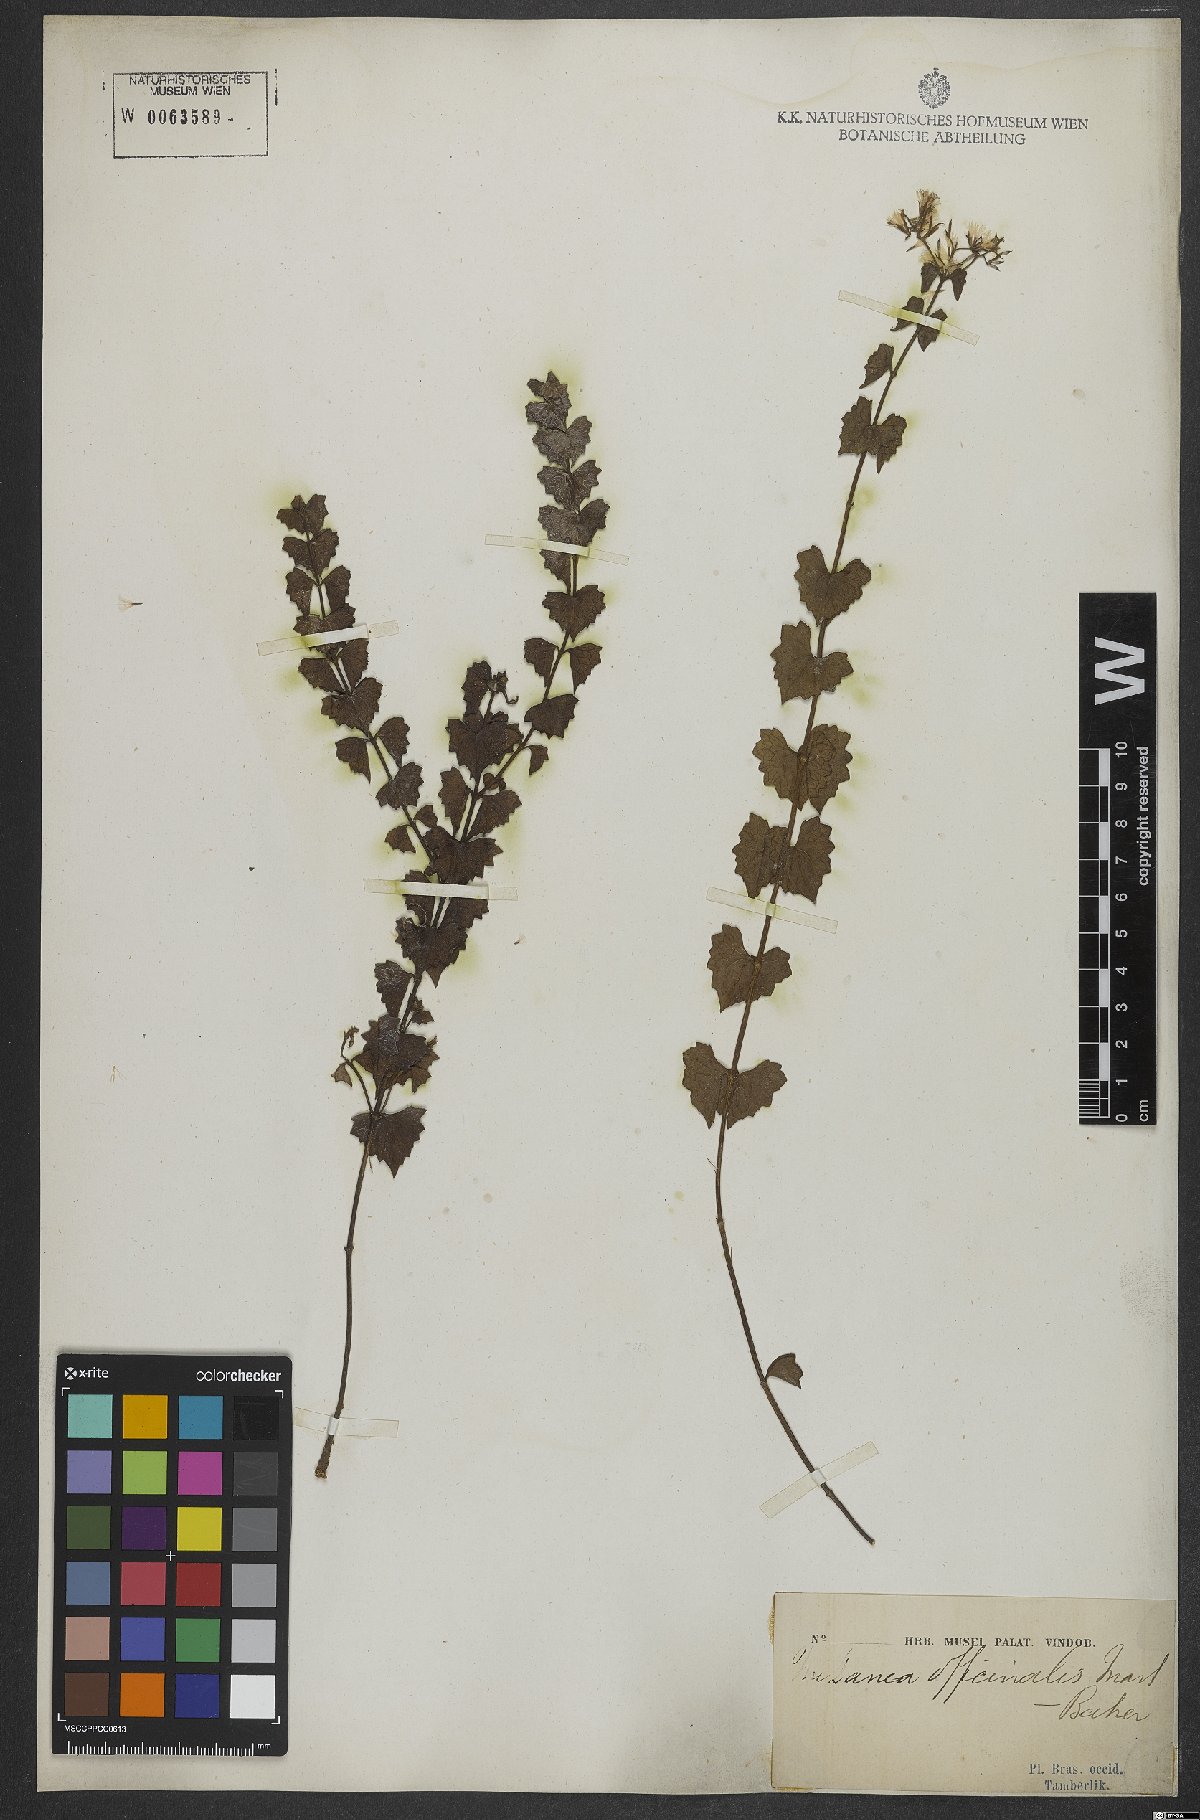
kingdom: Plantae
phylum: Tracheophyta
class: Magnoliopsida
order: Asterales
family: Asteraceae
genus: Mikania
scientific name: Mikania officinalis
